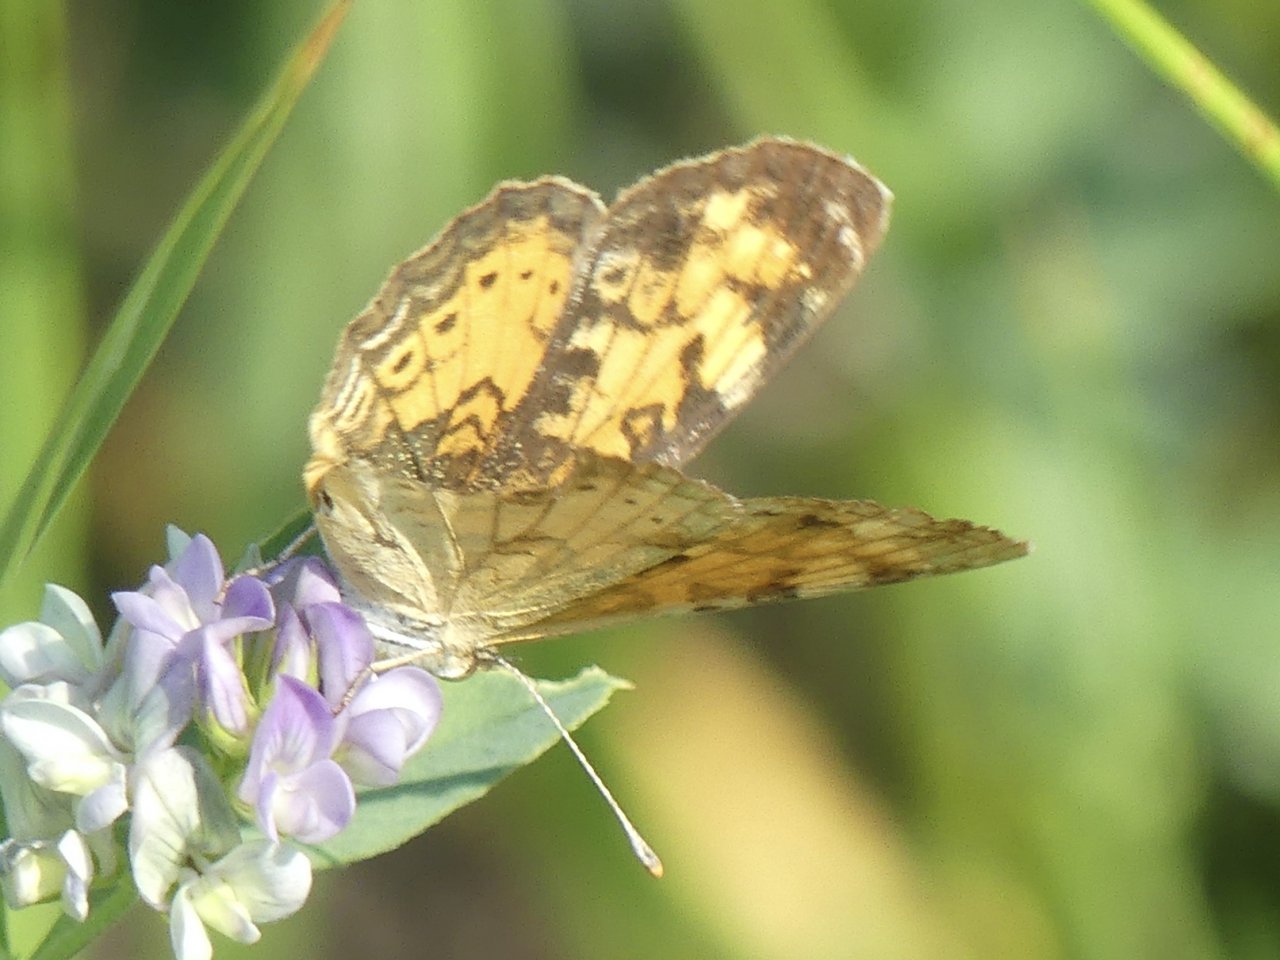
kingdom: Animalia
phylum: Arthropoda
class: Insecta
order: Lepidoptera
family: Nymphalidae
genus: Phyciodes
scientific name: Phyciodes tharos
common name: Northern Crescent
